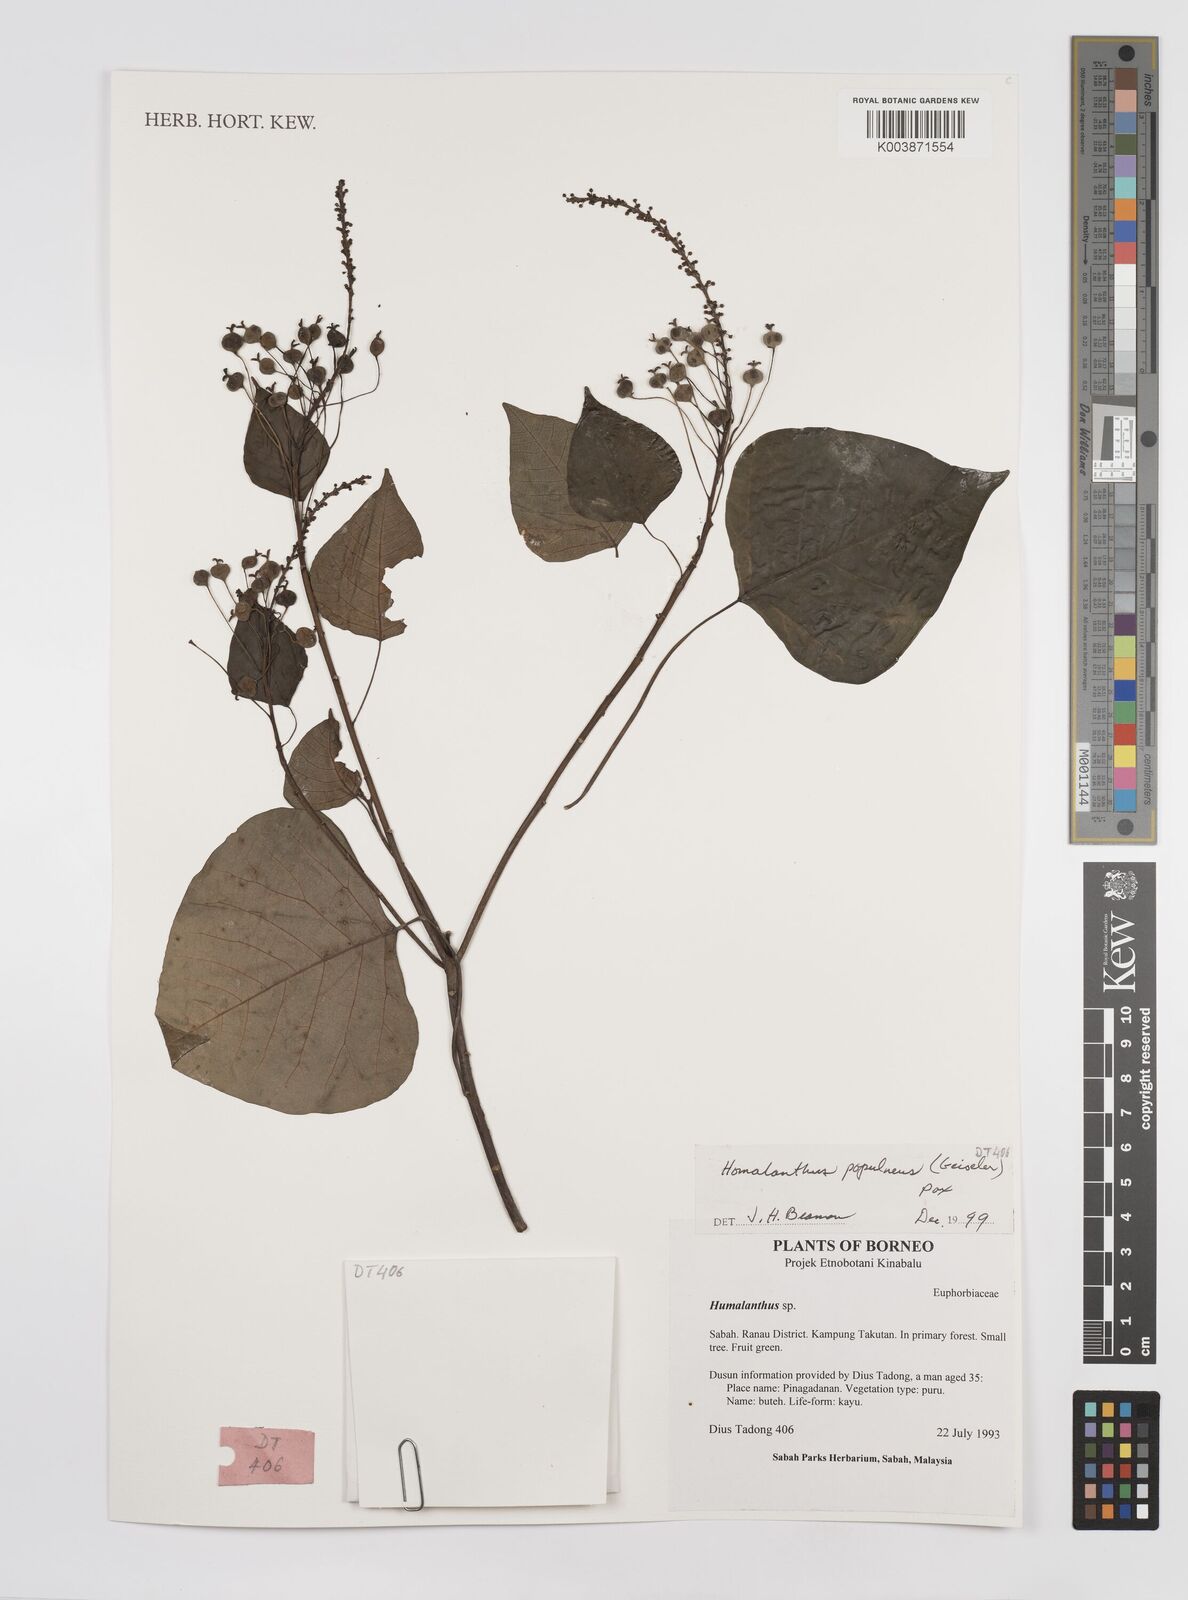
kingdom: Plantae
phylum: Tracheophyta
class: Magnoliopsida
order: Malpighiales
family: Euphorbiaceae
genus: Homalanthus
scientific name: Homalanthus populneus
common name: Spurge
